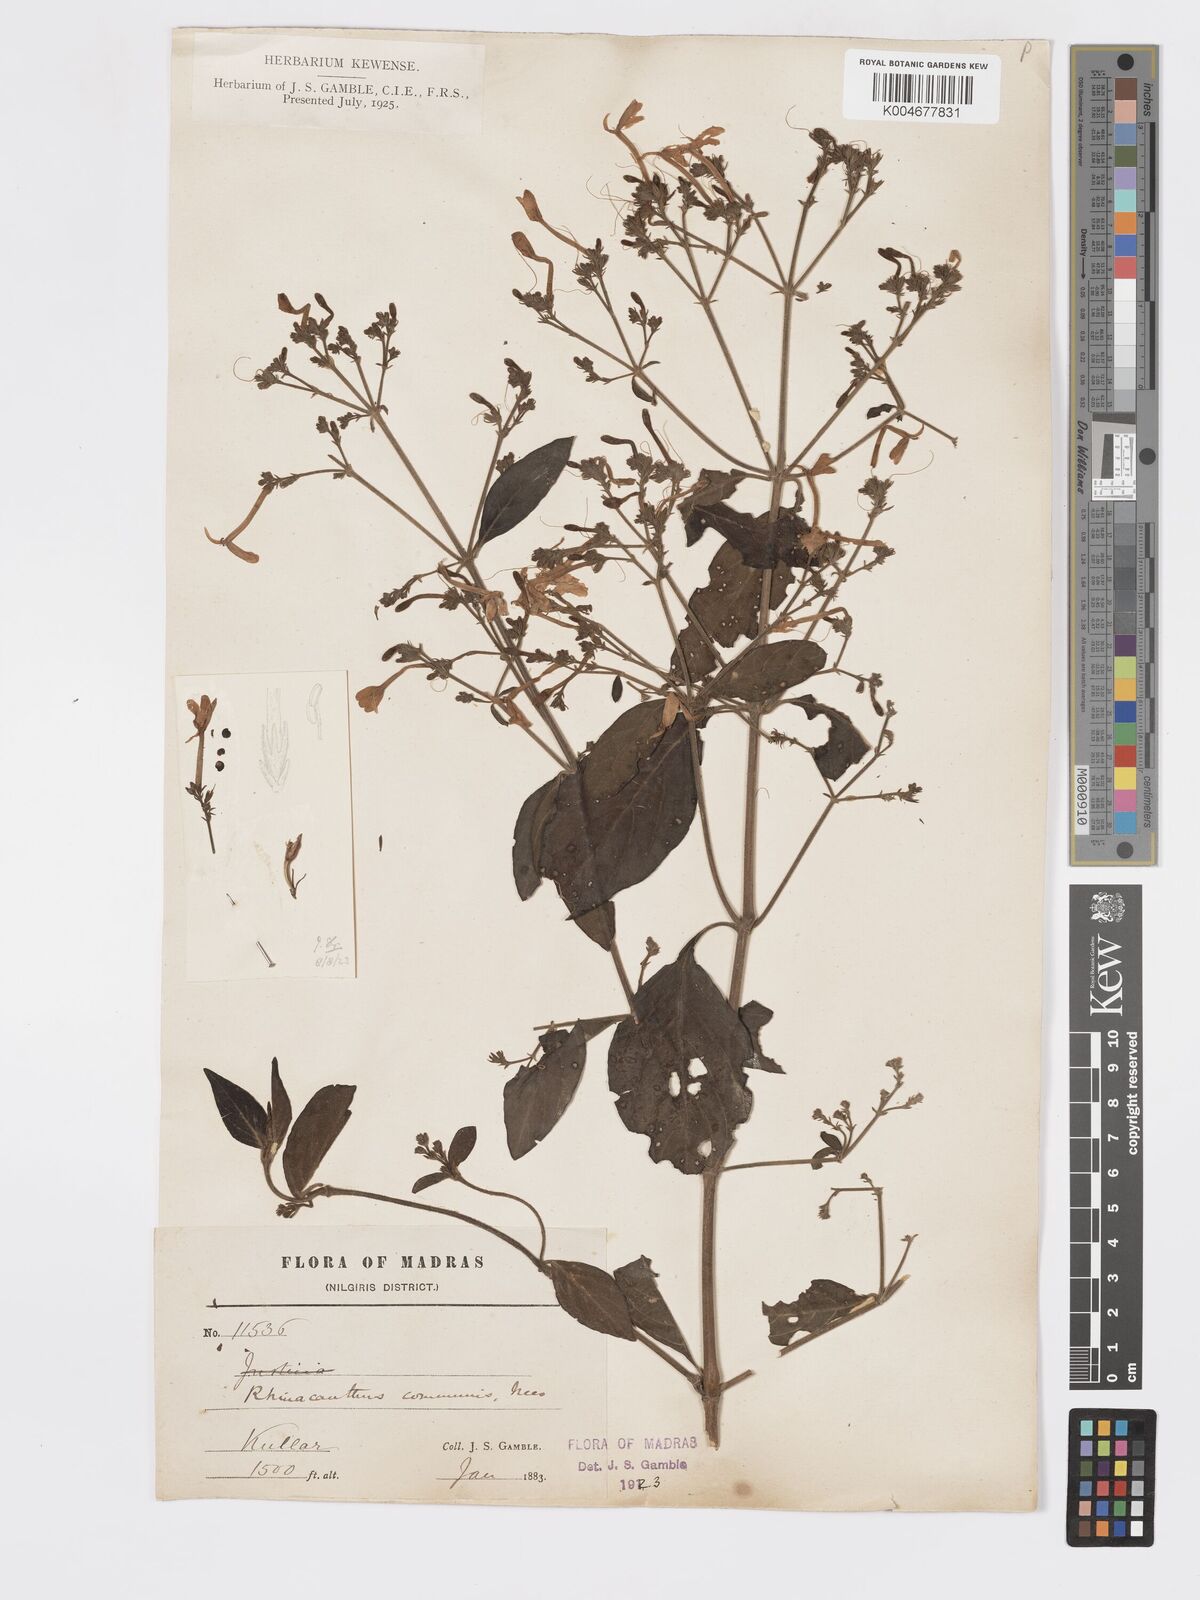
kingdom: Plantae
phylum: Tracheophyta
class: Magnoliopsida
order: Lamiales
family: Acanthaceae
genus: Rhinacanthus
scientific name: Rhinacanthus nasutus
